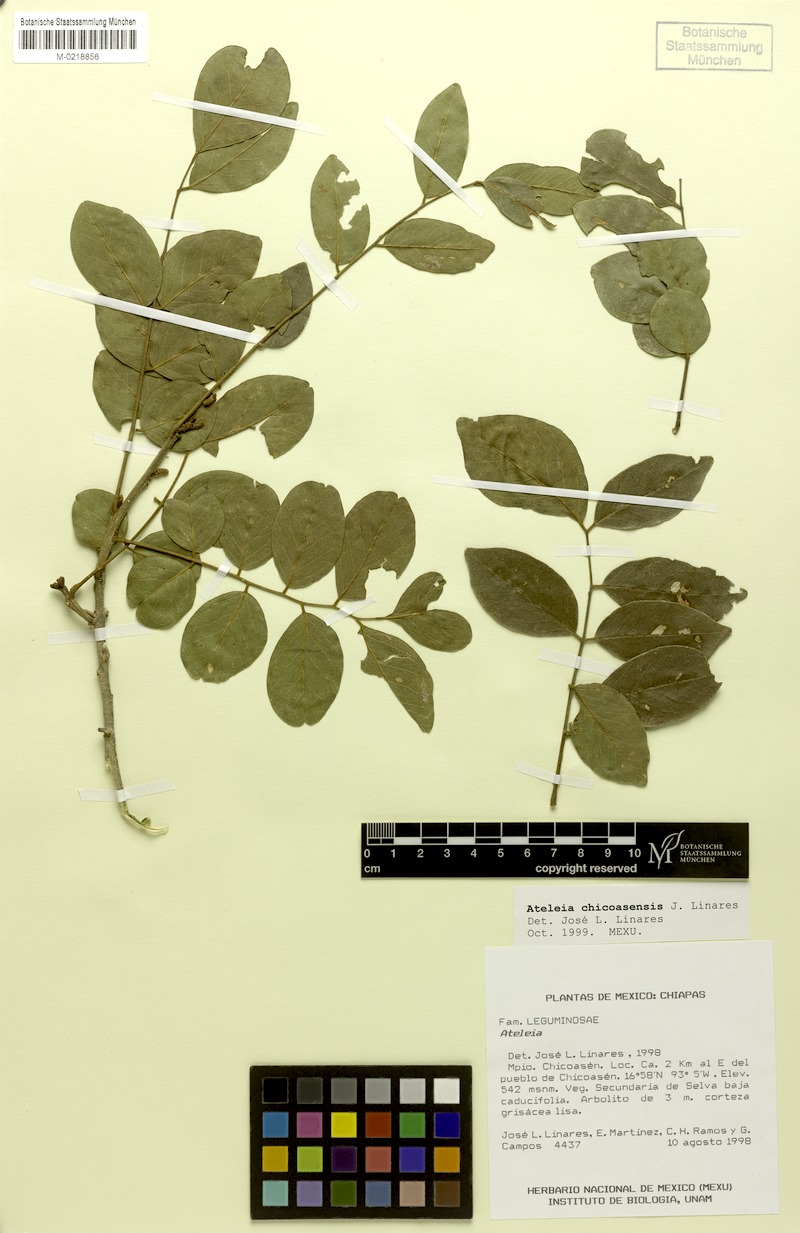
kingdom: Plantae
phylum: Tracheophyta
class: Magnoliopsida
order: Fabales
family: Fabaceae
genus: Ateleia
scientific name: Ateleia chicoasensis
